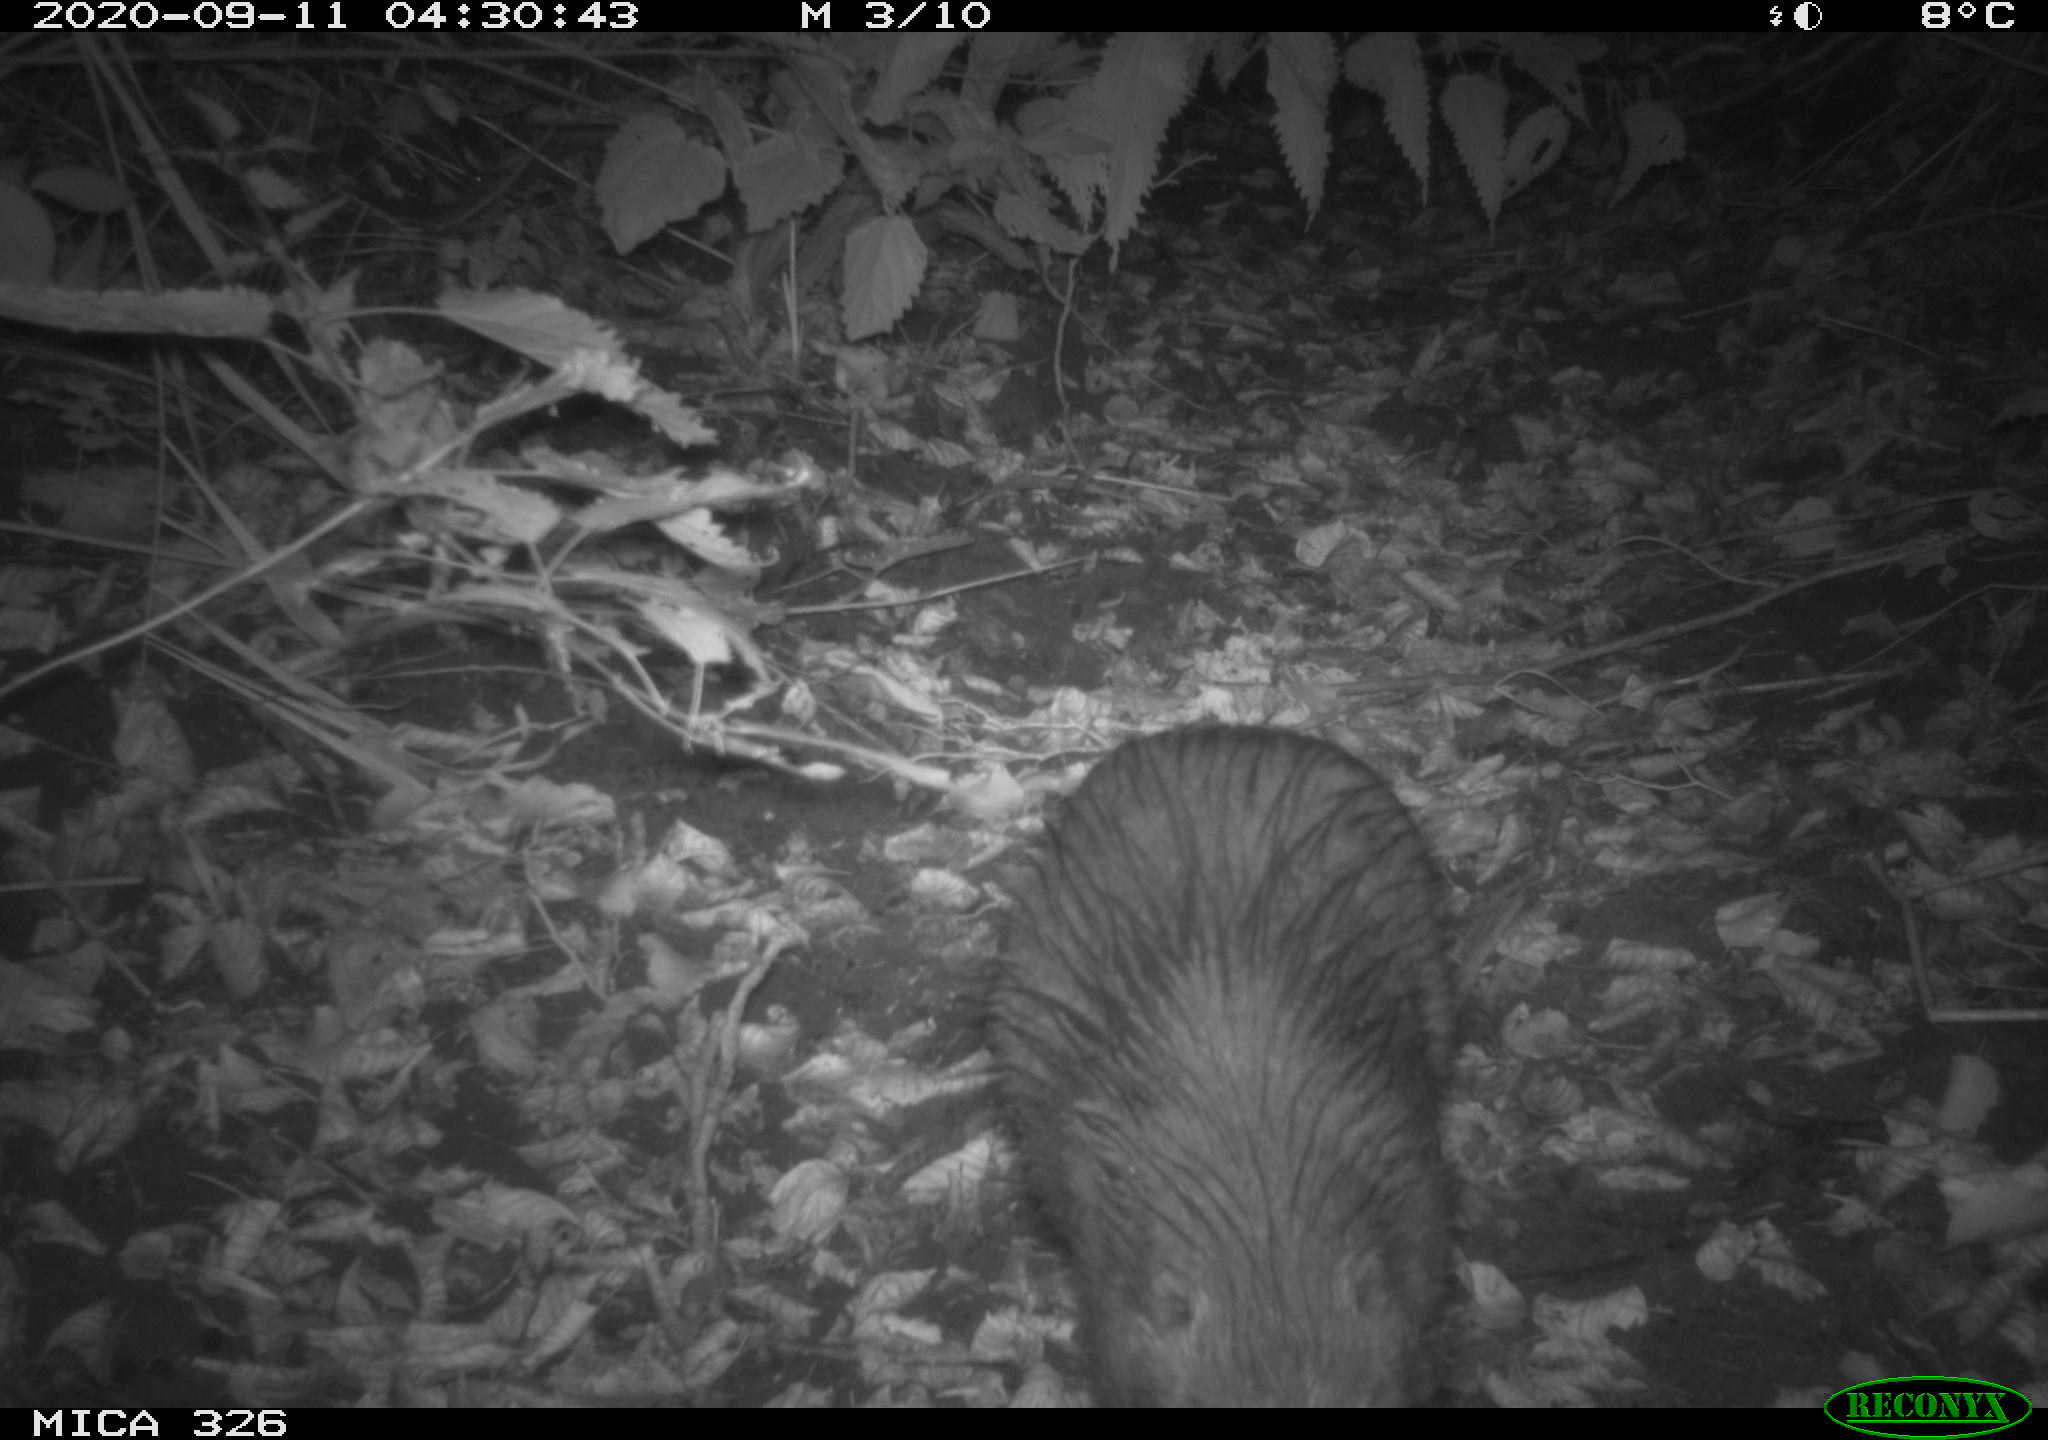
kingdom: Animalia
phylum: Chordata
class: Mammalia
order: Rodentia
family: Myocastoridae
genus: Myocastor
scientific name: Myocastor coypus
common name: Coypu
